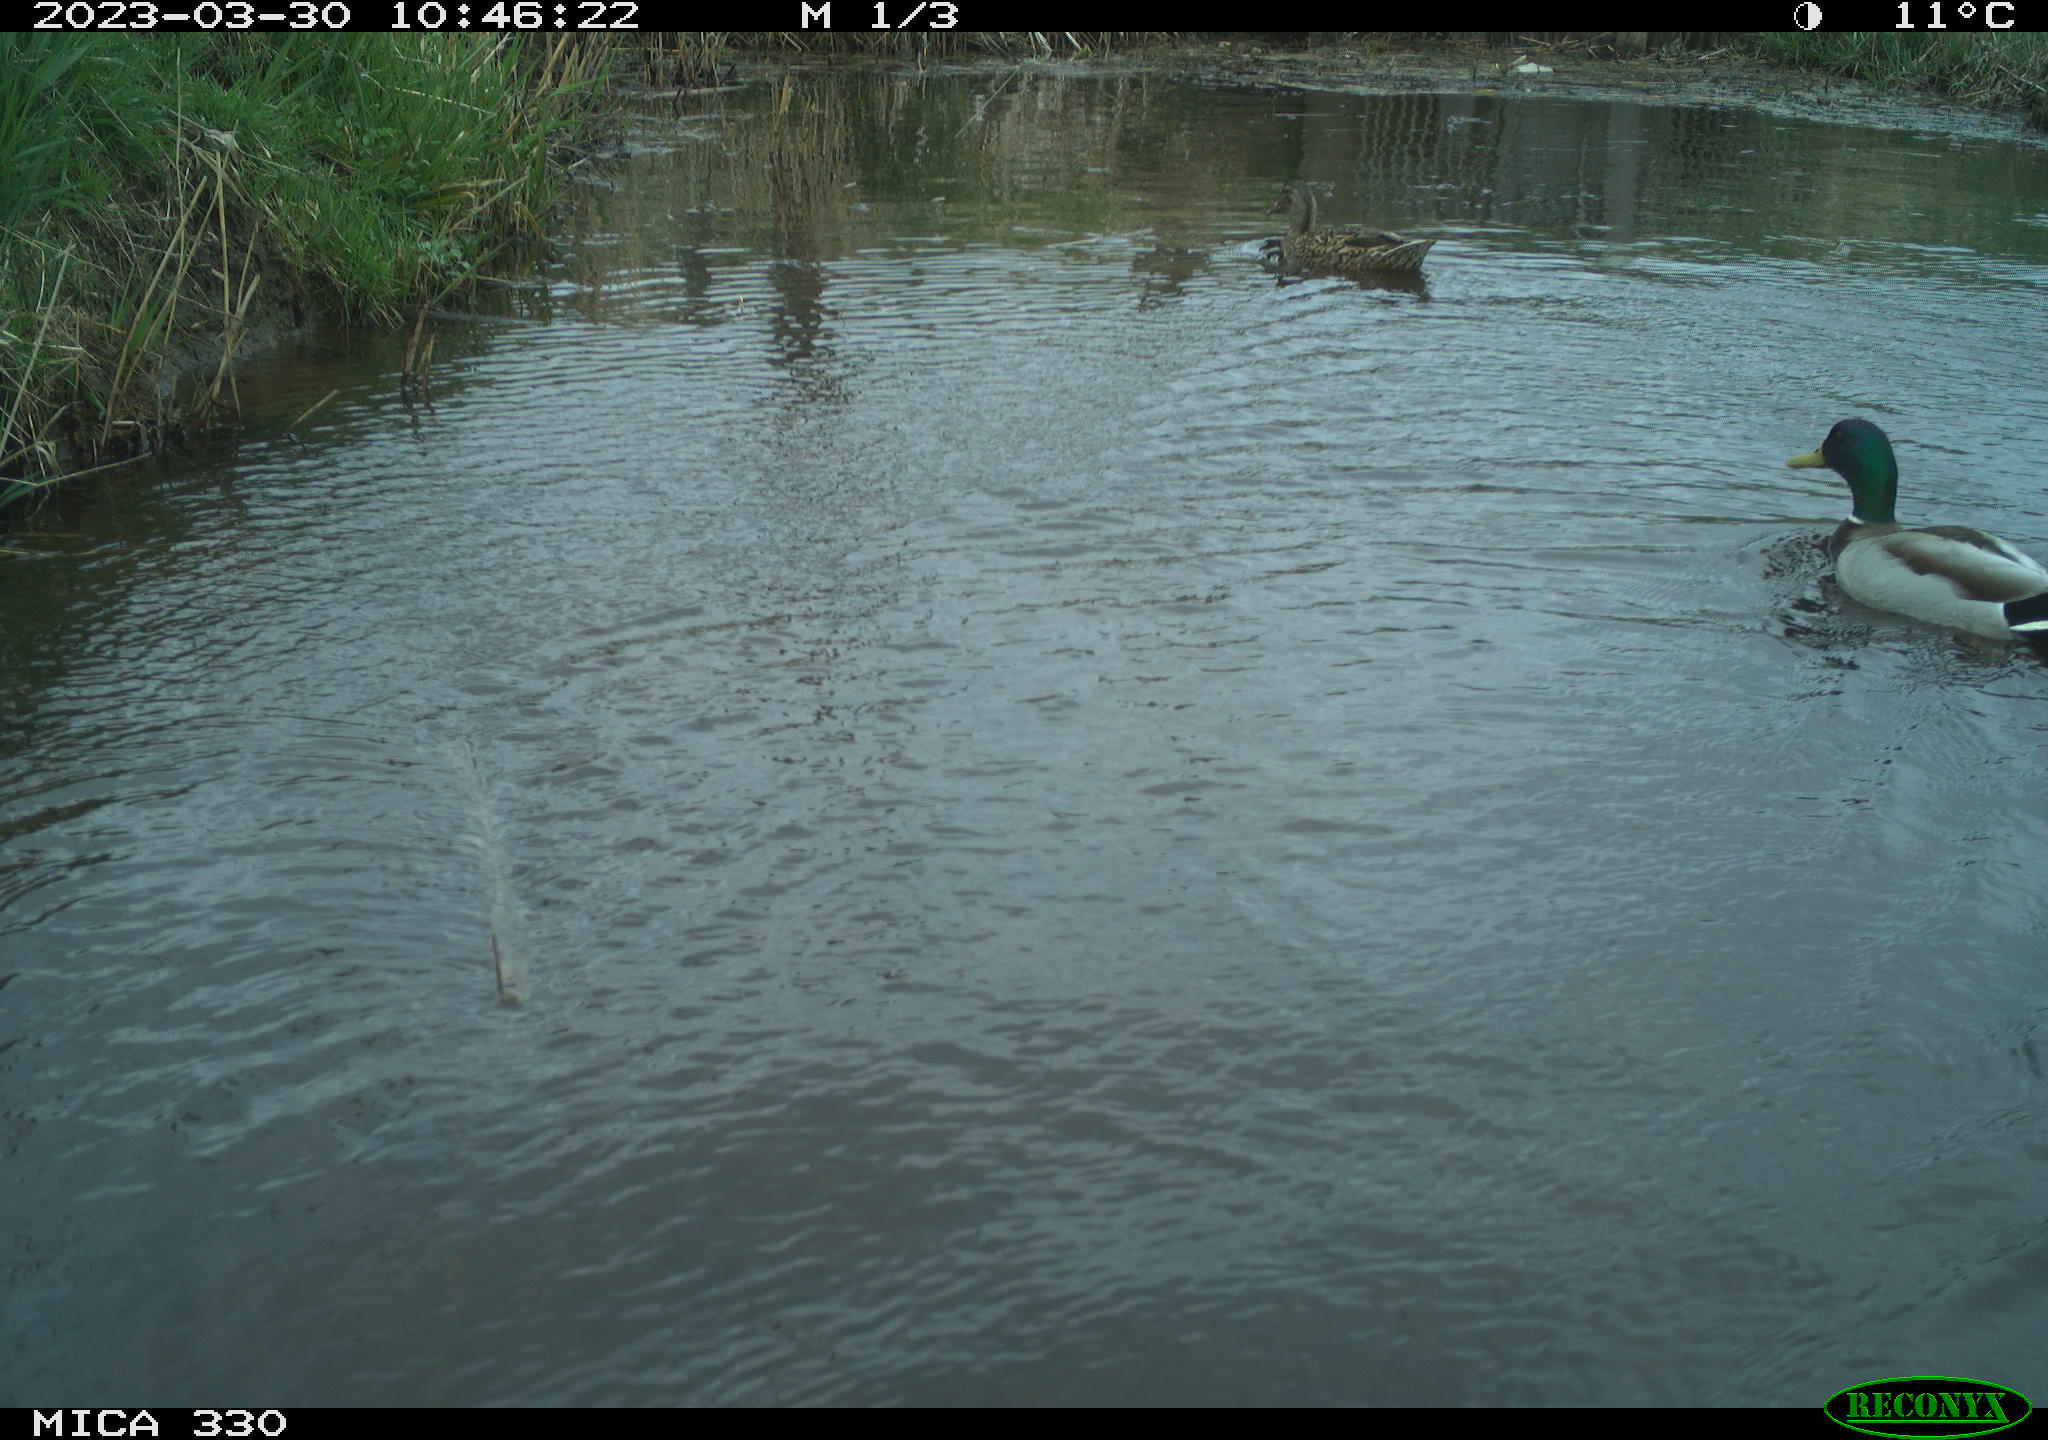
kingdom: Animalia
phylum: Chordata
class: Aves
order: Anseriformes
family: Anatidae
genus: Anas
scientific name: Anas
